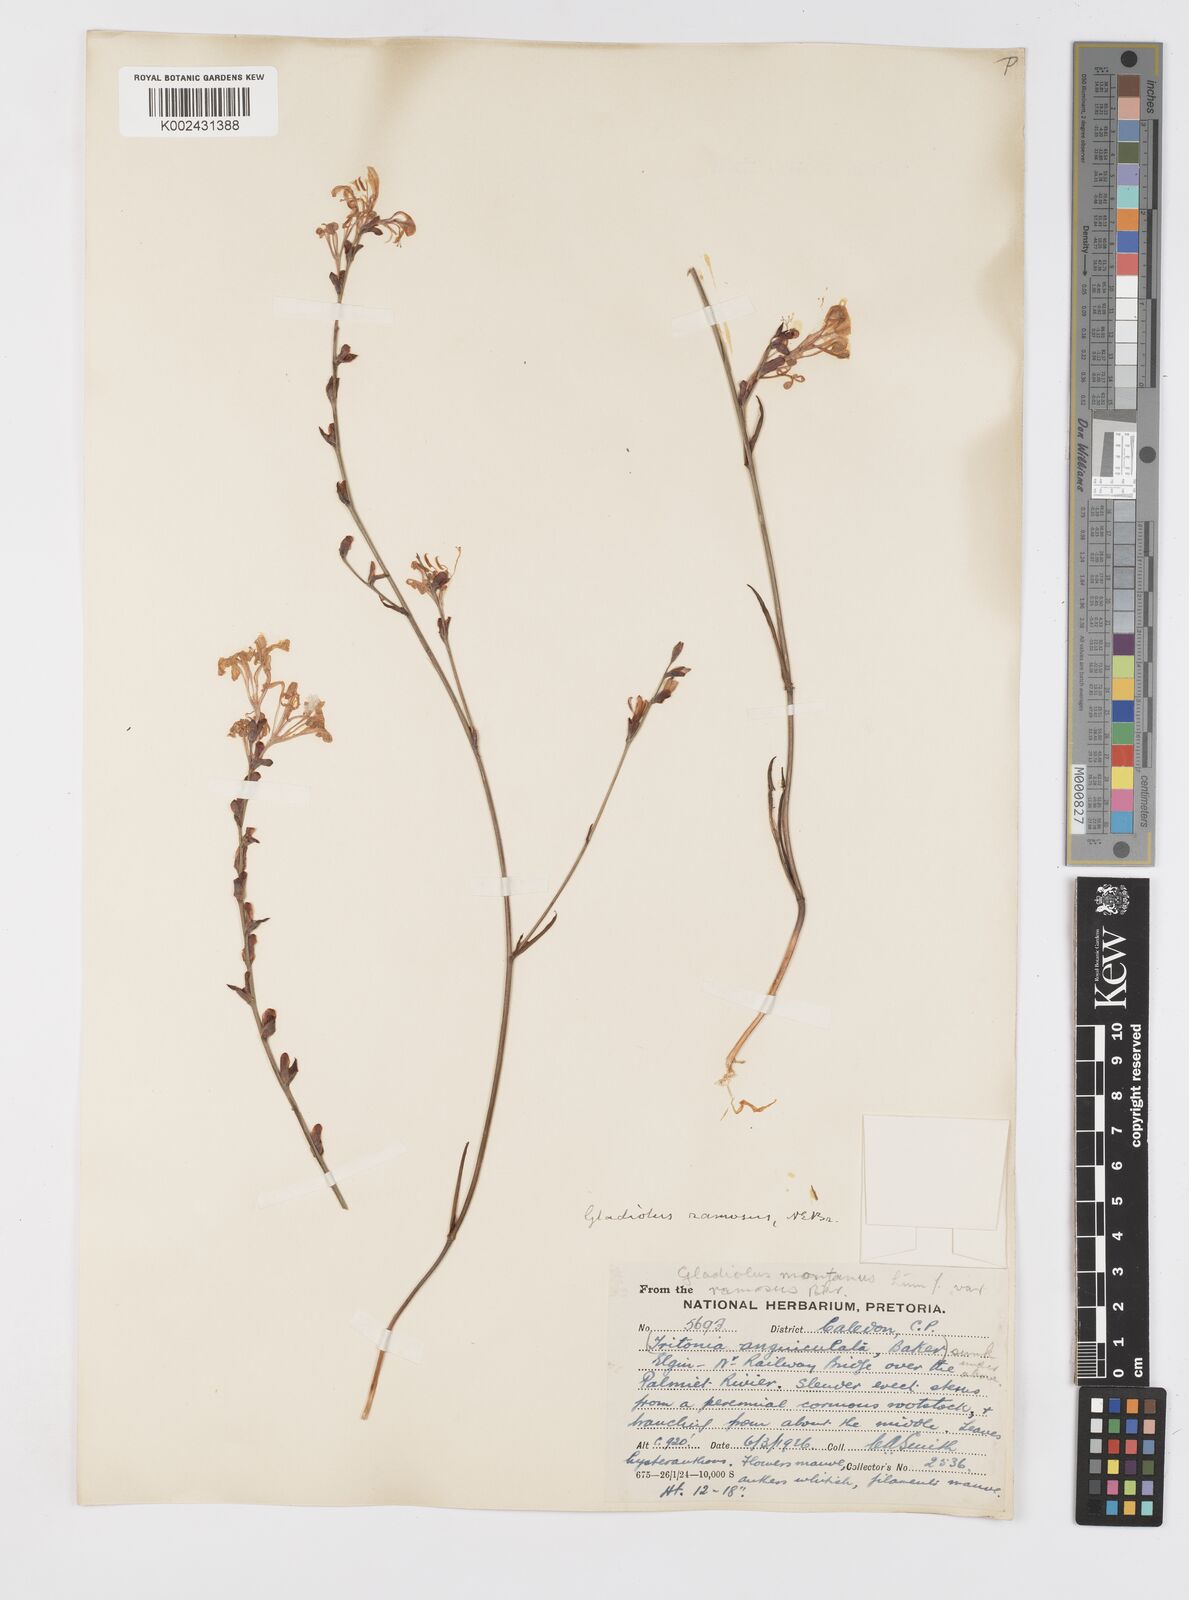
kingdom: Plantae
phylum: Tracheophyta
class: Liliopsida
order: Asparagales
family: Iridaceae
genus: Tritoniopsis
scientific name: Tritoniopsis ramosa
